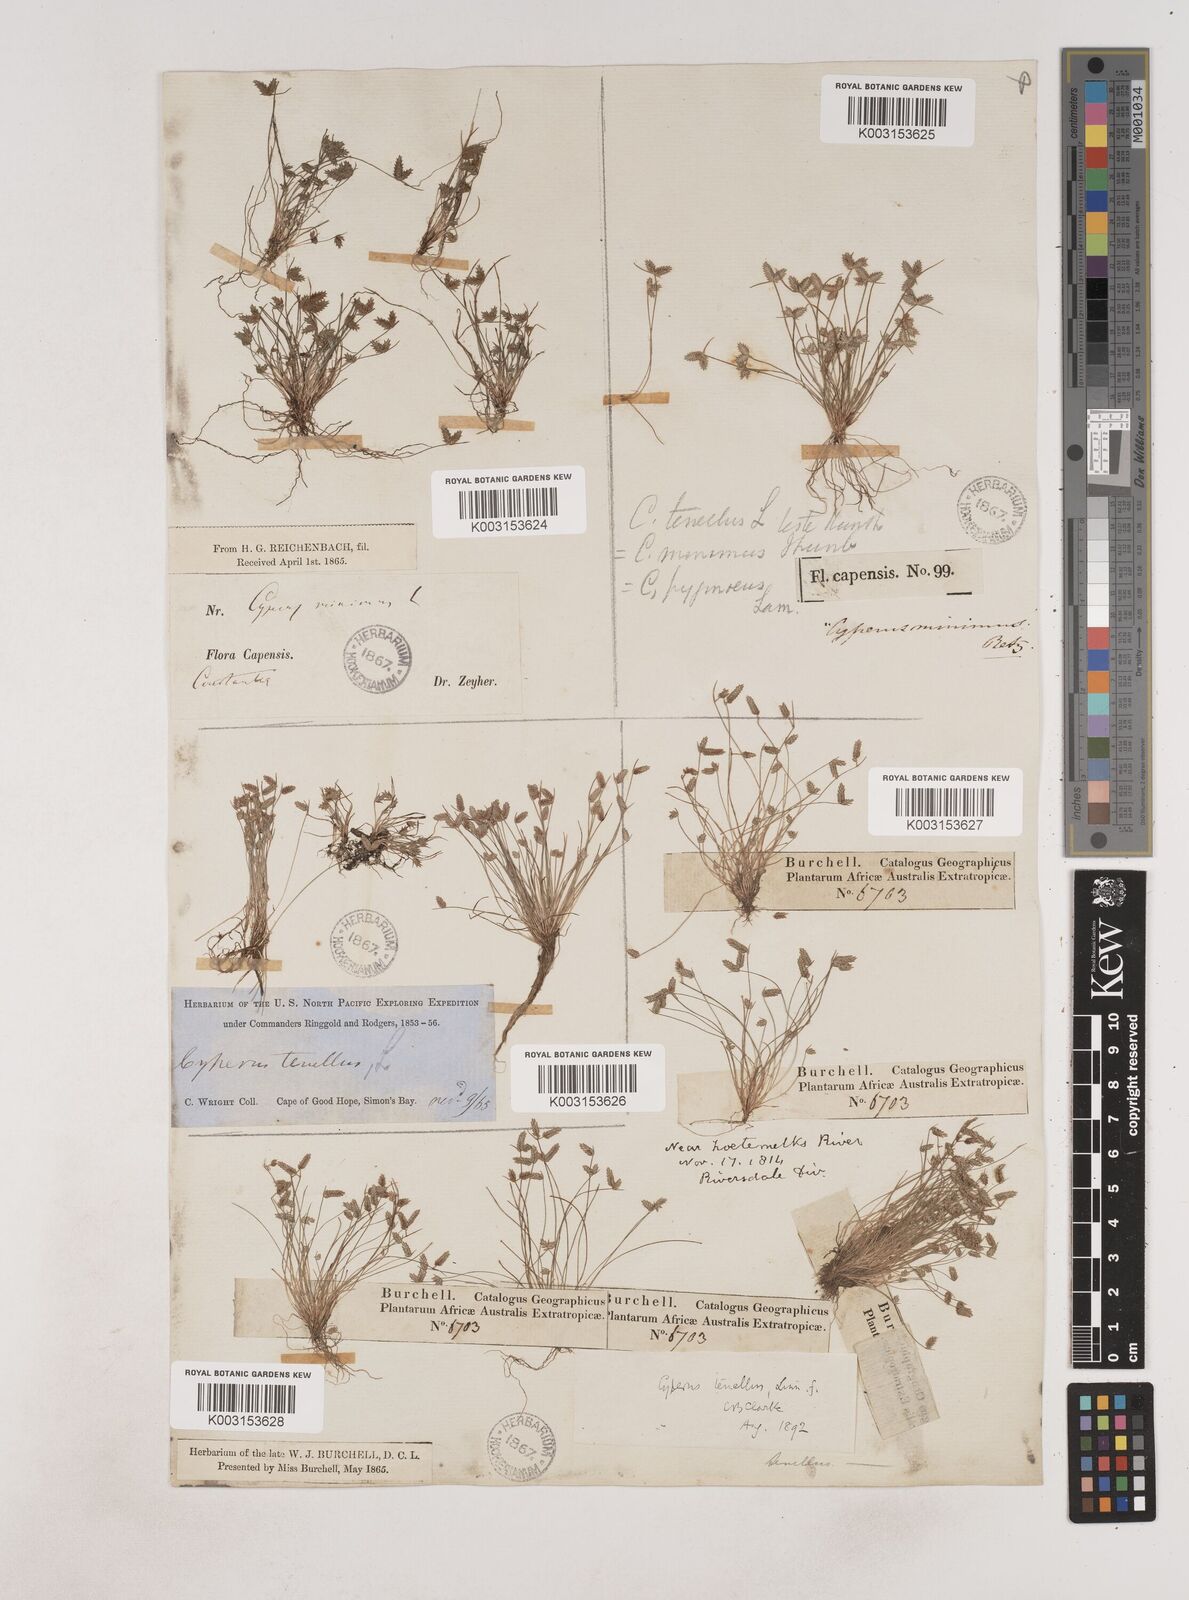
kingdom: Plantae
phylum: Tracheophyta
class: Liliopsida
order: Poales
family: Cyperaceae
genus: Isolepis
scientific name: Isolepis levynsiana
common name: Sedge
